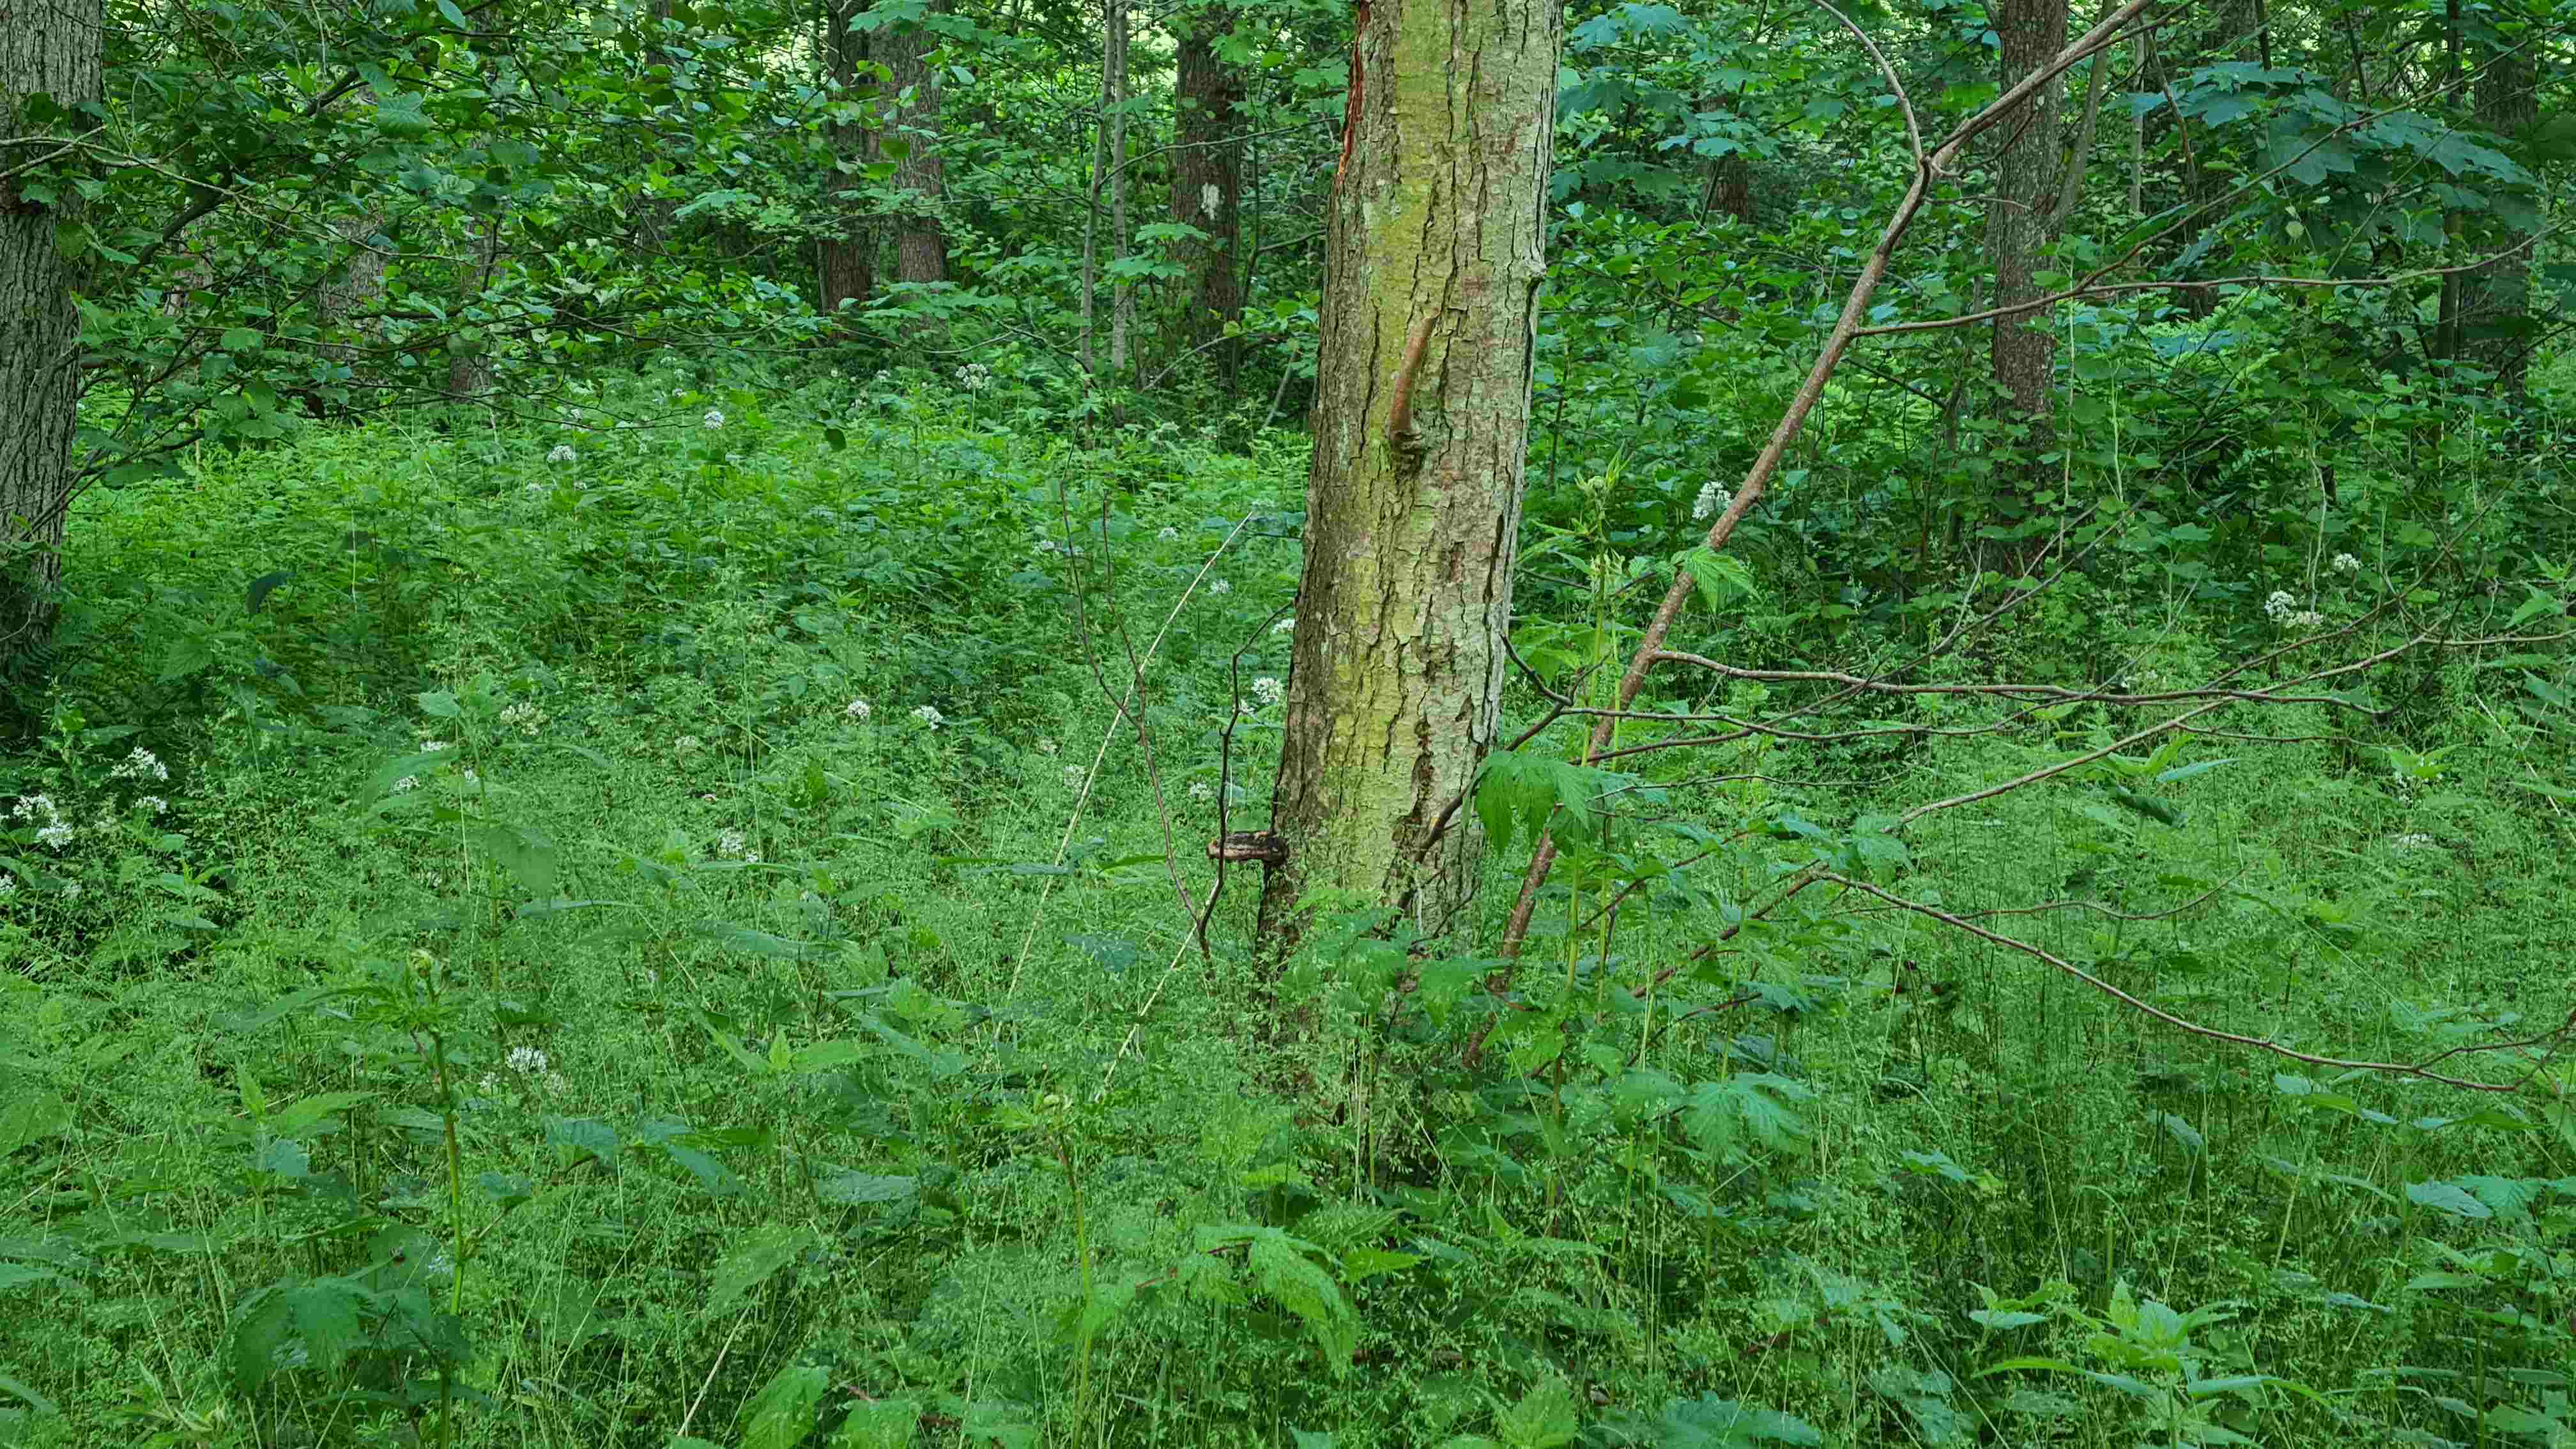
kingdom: Fungi
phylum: Basidiomycota
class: Agaricomycetes
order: Polyporales
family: Polyporaceae
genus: Daedaleopsis
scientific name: Daedaleopsis confragosa
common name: rødmende læderporesvamp
